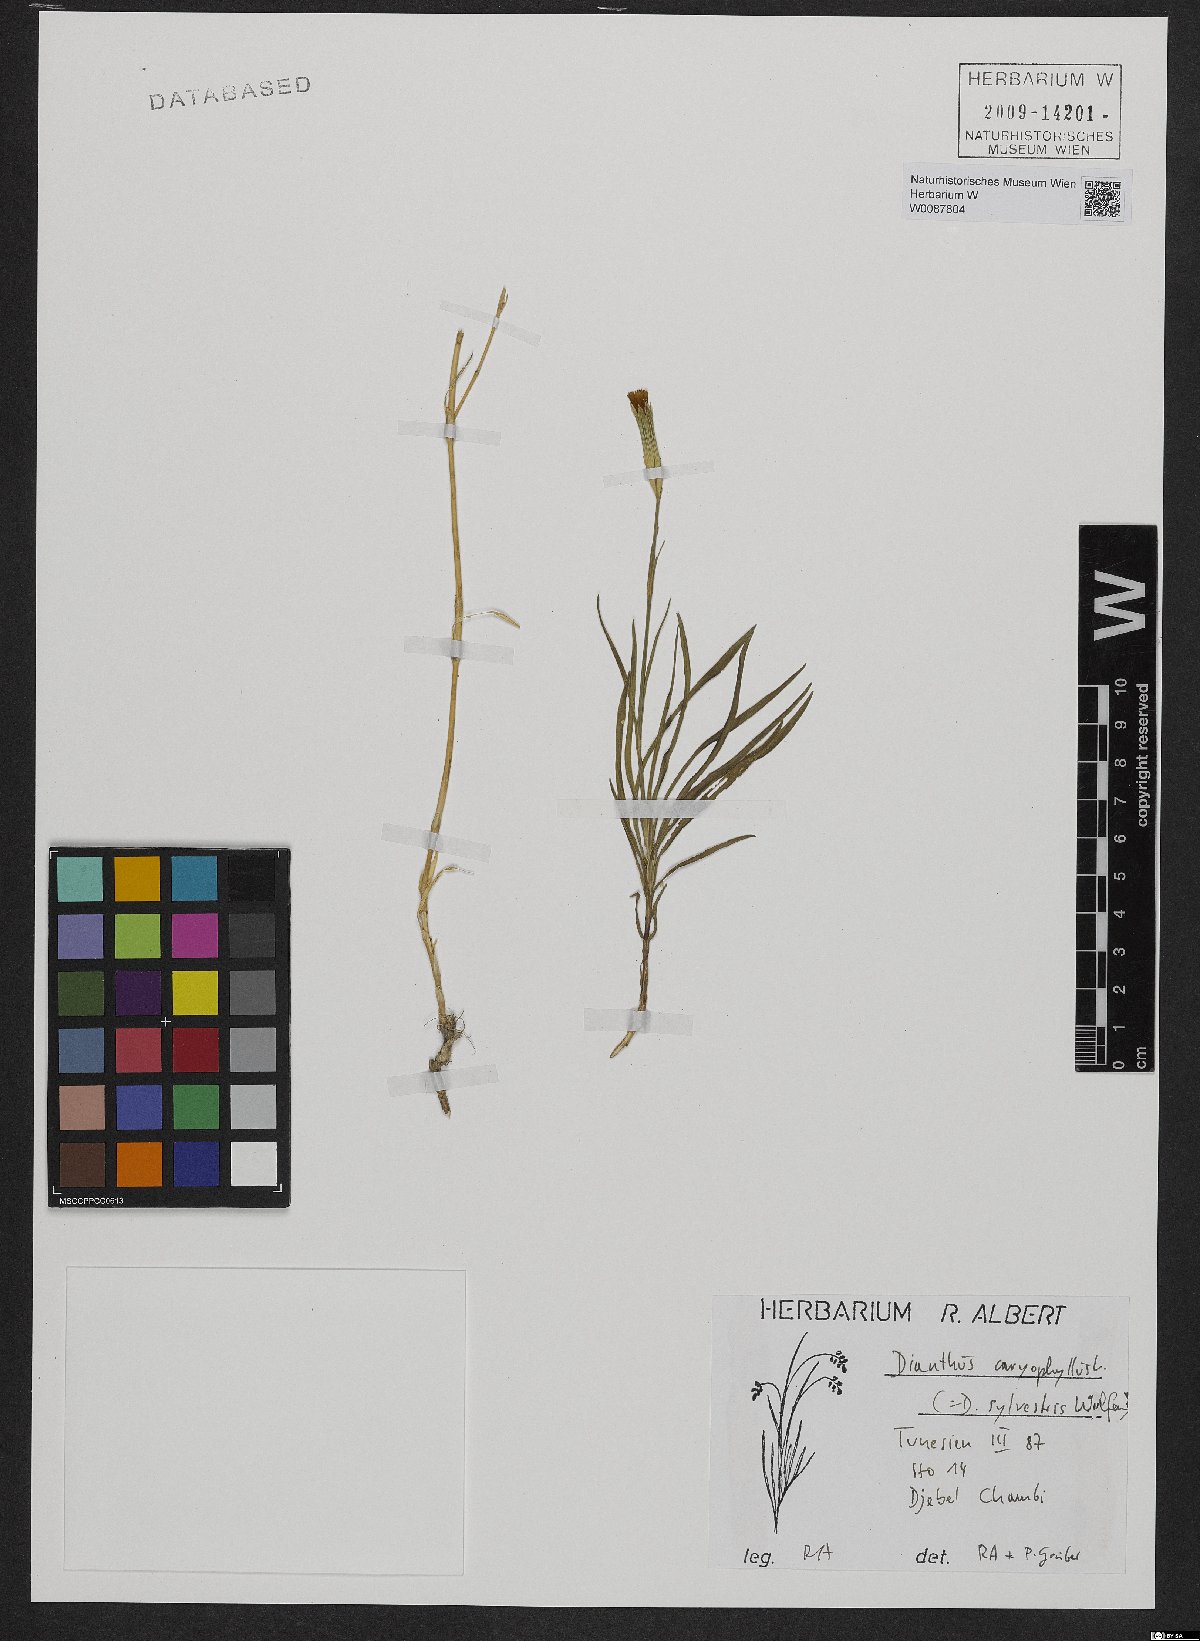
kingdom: Plantae
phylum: Tracheophyta
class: Magnoliopsida
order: Caryophyllales
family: Caryophyllaceae
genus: Dianthus
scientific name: Dianthus caryophyllus
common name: Clove pink
